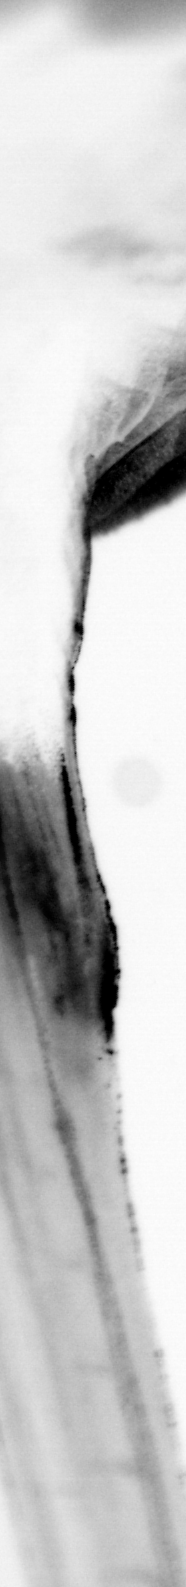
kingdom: Animalia
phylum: Chordata
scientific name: Chordata
